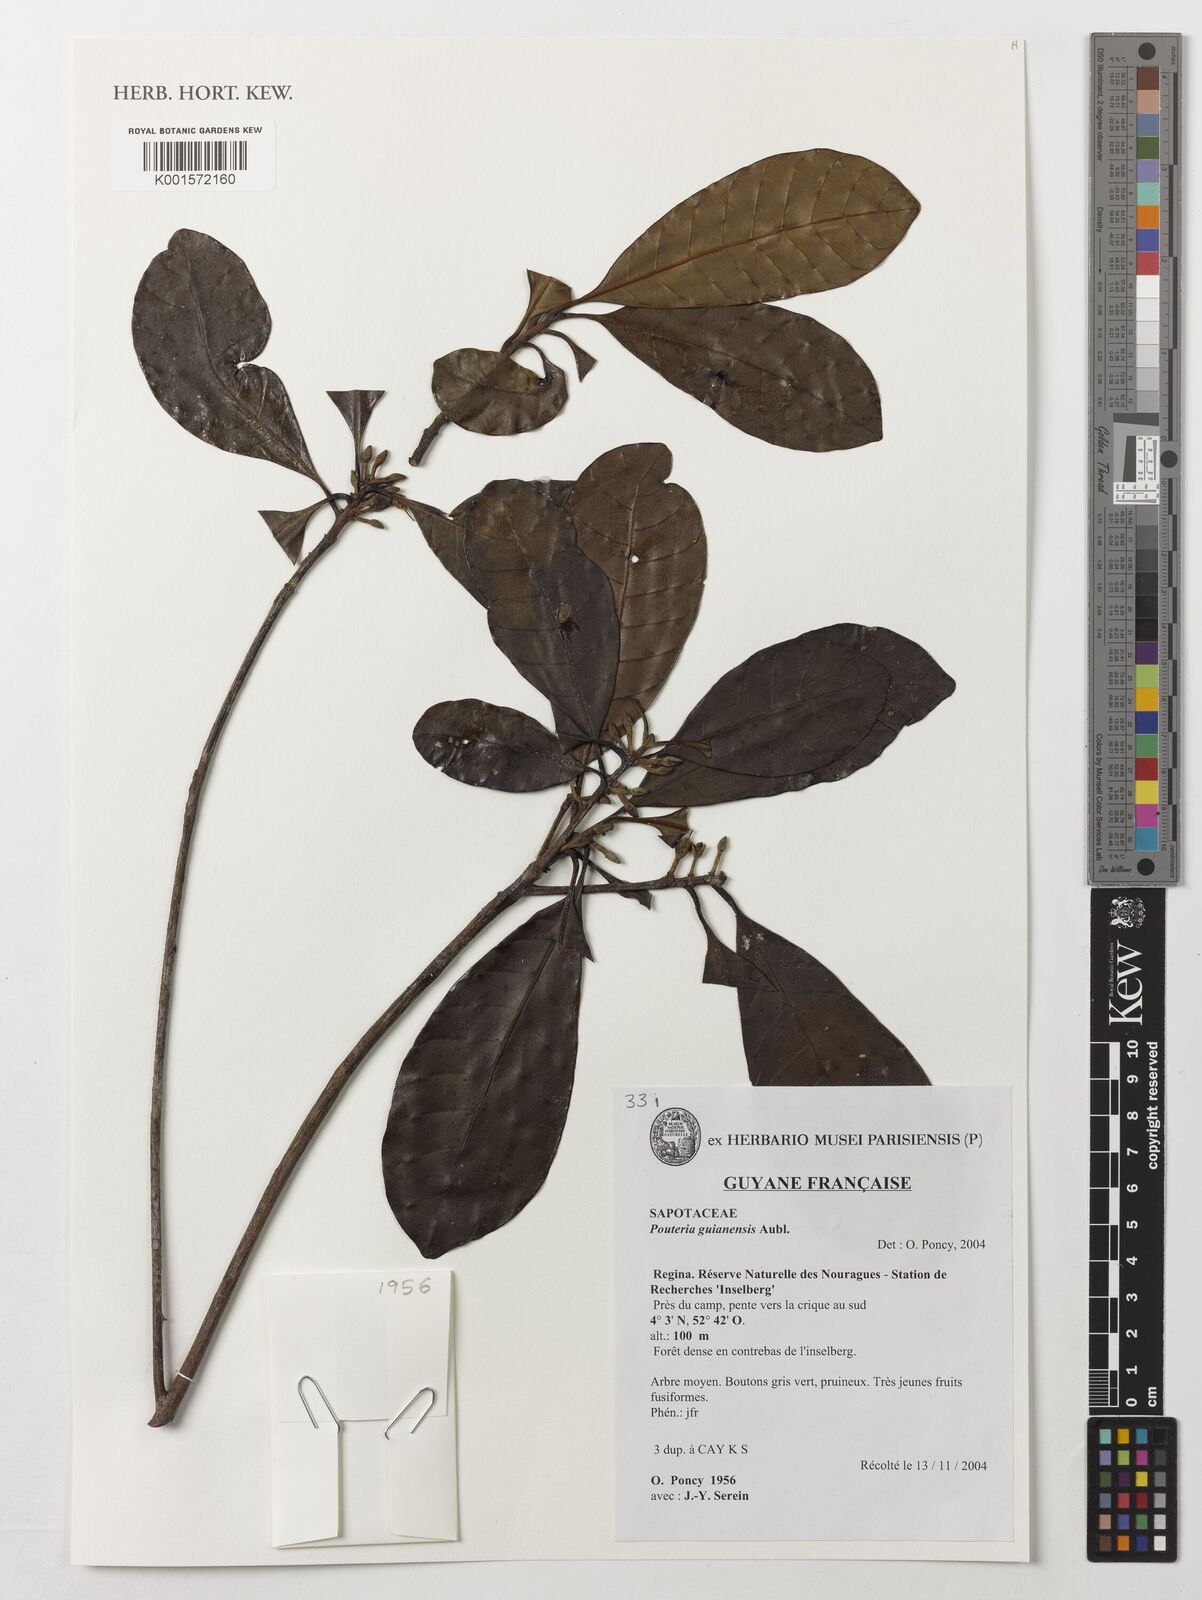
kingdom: Plantae
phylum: Tracheophyta
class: Magnoliopsida
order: Ericales
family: Sapotaceae
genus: Pouteria
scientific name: Pouteria guianensis
